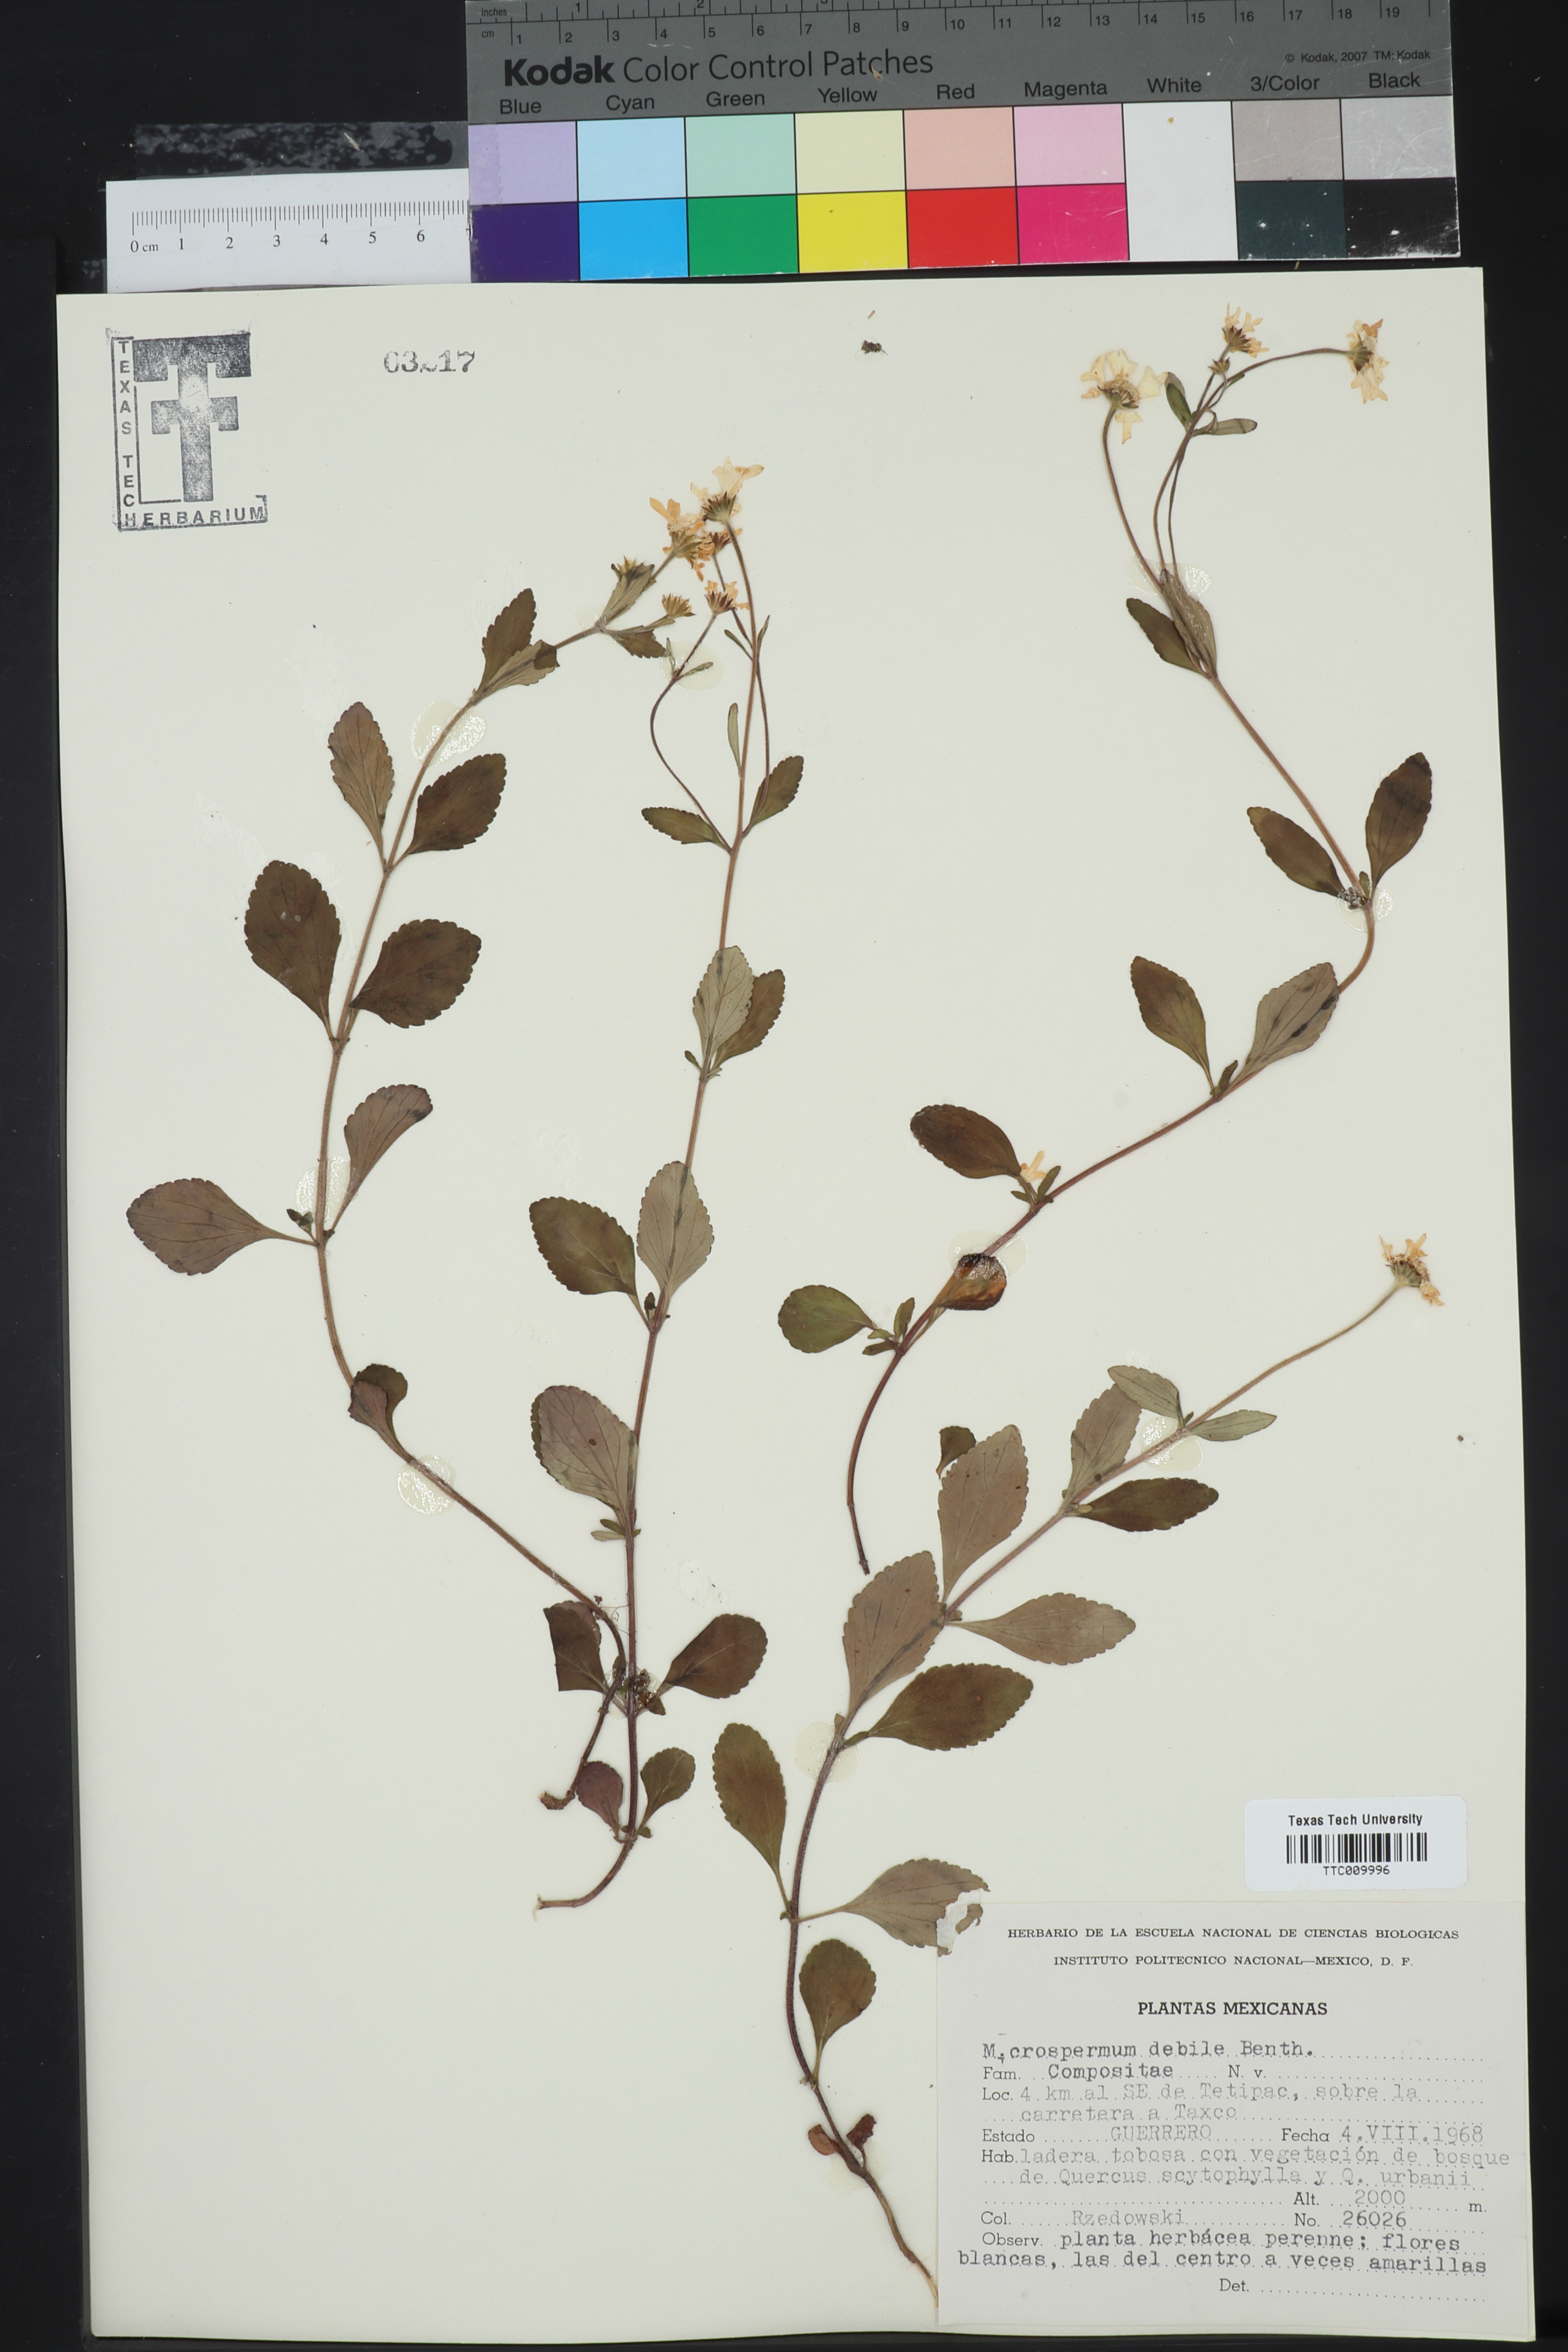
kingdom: Plantae
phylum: Tracheophyta
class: Magnoliopsida
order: Asterales
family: Asteraceae
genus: Microspermum
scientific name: Microspermum debile
